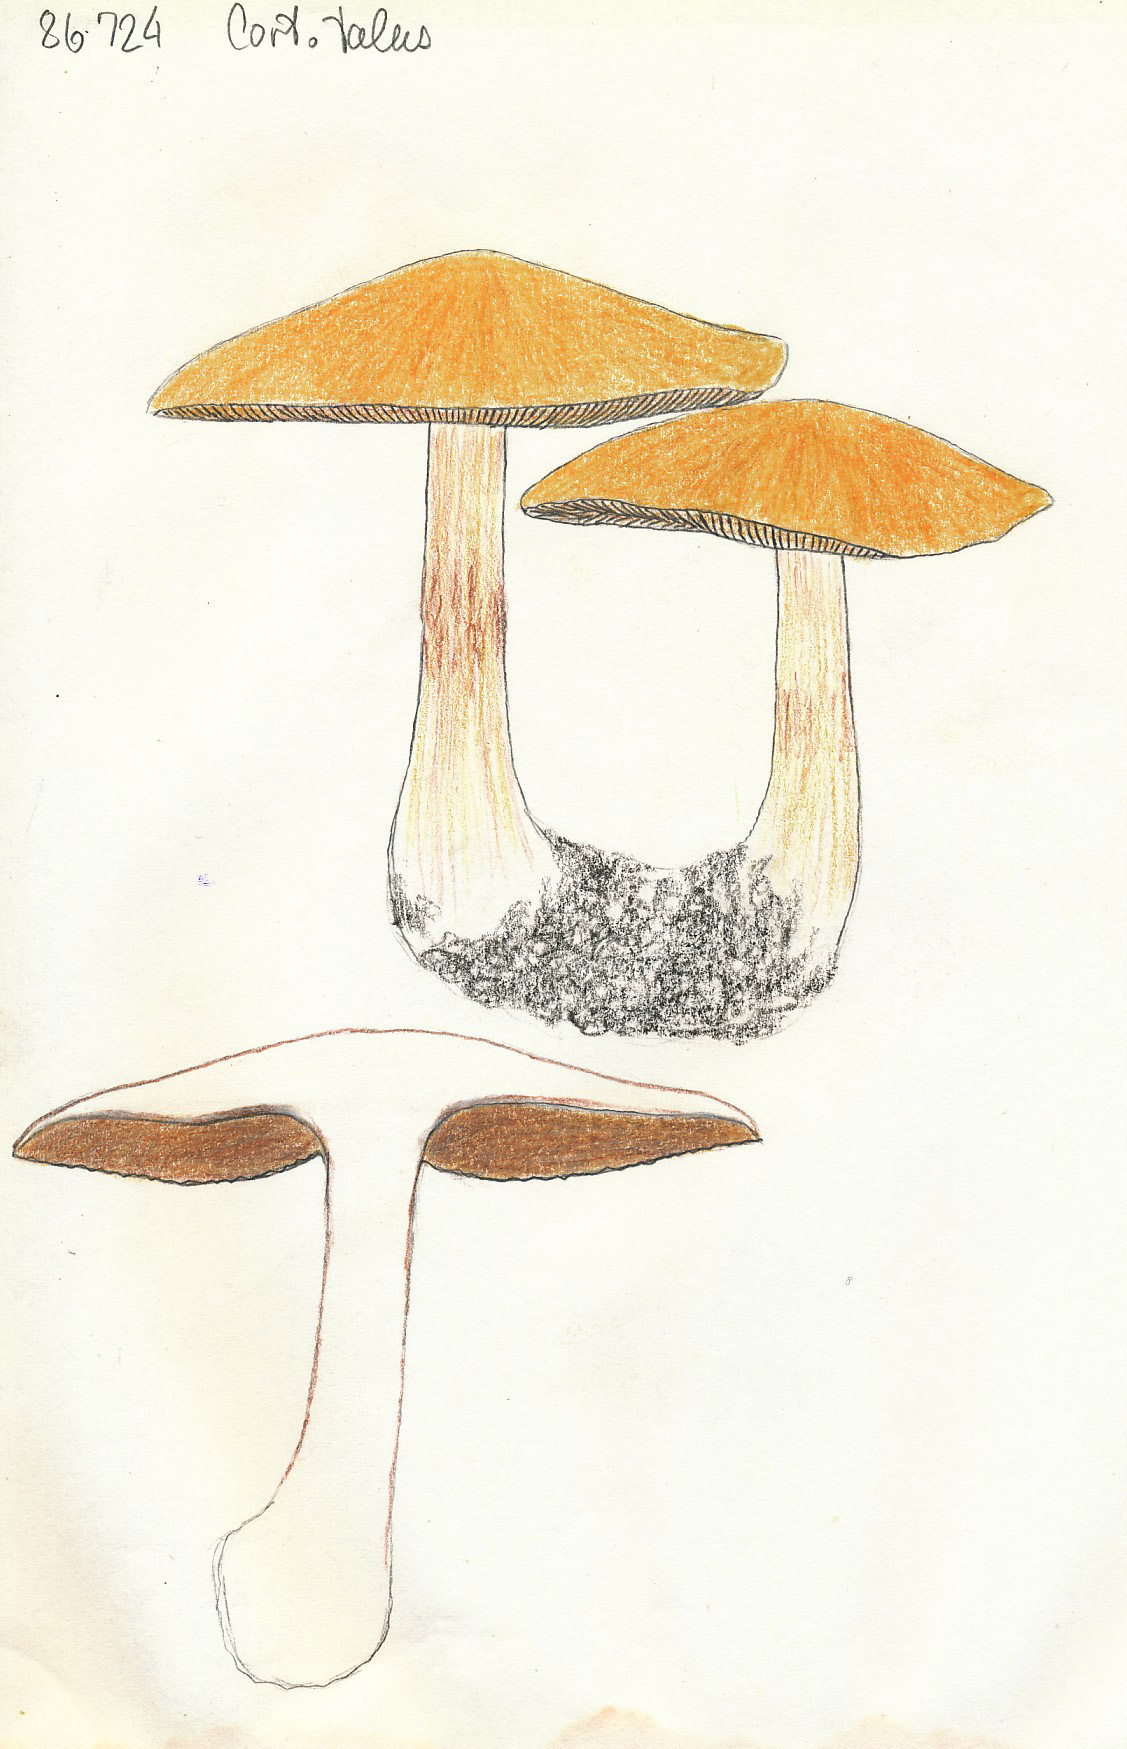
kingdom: Fungi
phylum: Basidiomycota
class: Agaricomycetes
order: Agaricales
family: Cortinariaceae
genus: Thaxterogaster
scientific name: Thaxterogaster talus
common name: knogle-slørhat
